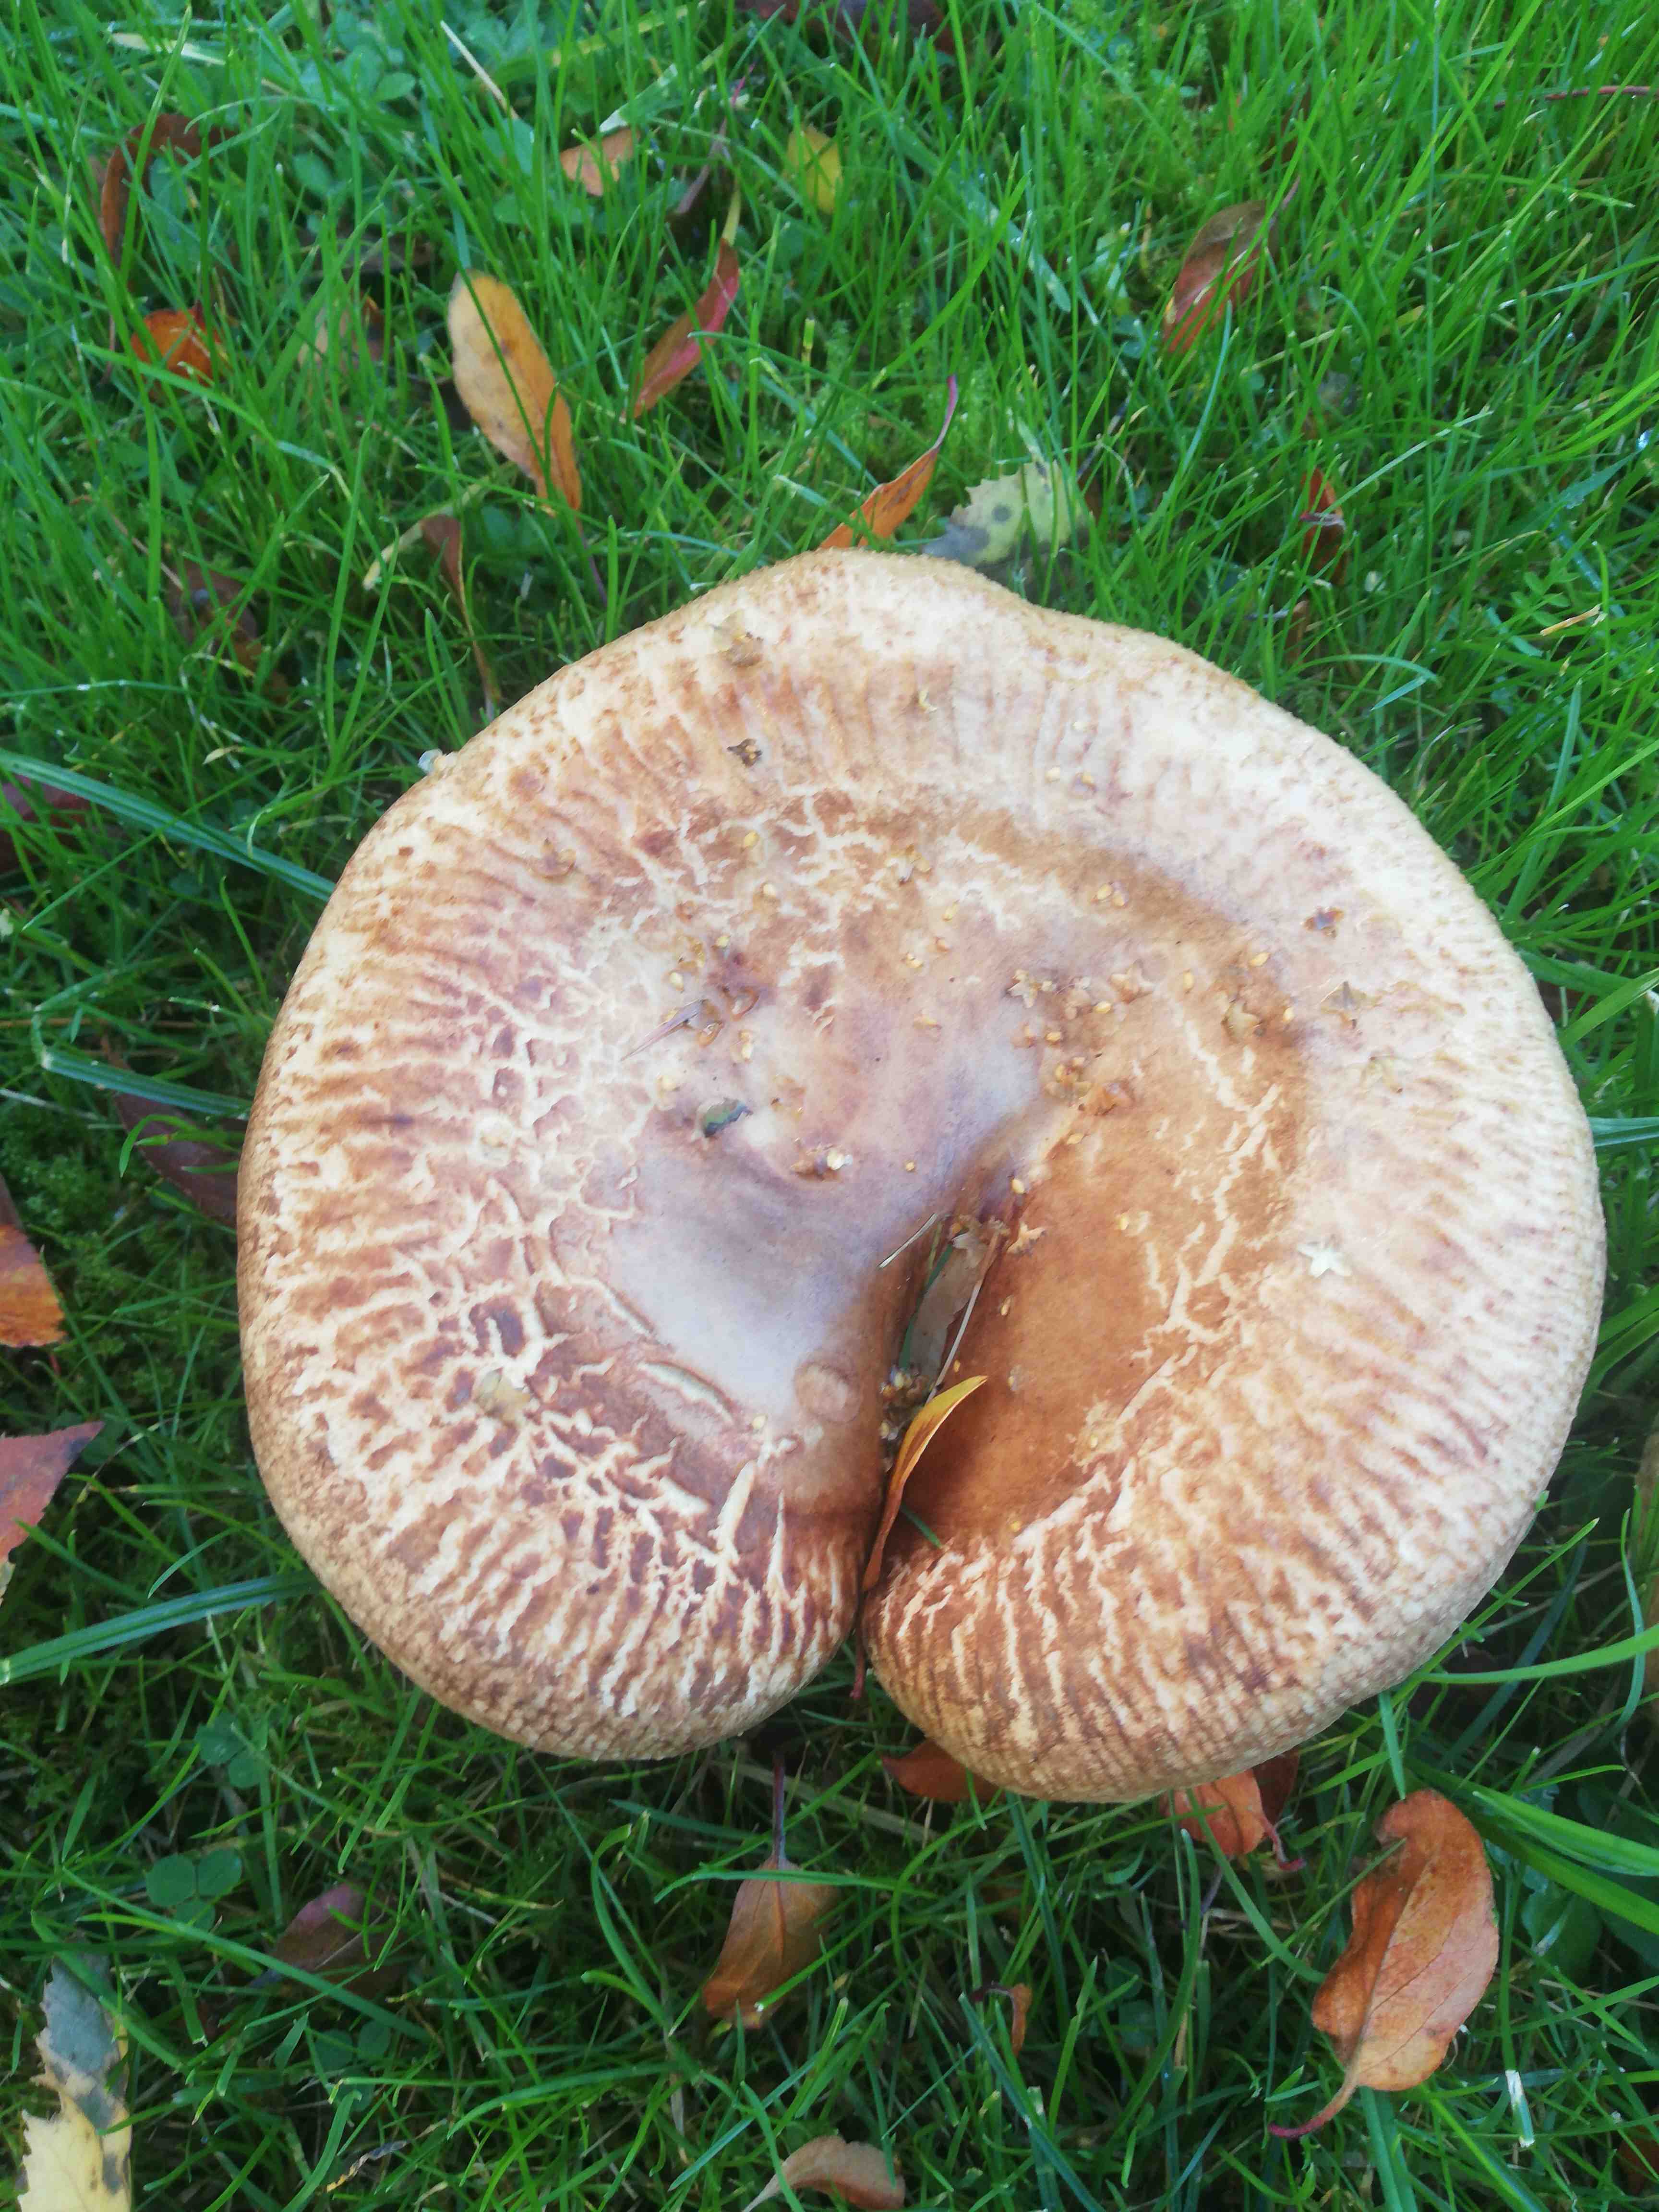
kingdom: Fungi
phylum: Basidiomycota
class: Agaricomycetes
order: Boletales
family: Paxillaceae
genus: Paxillus
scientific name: Paxillus
